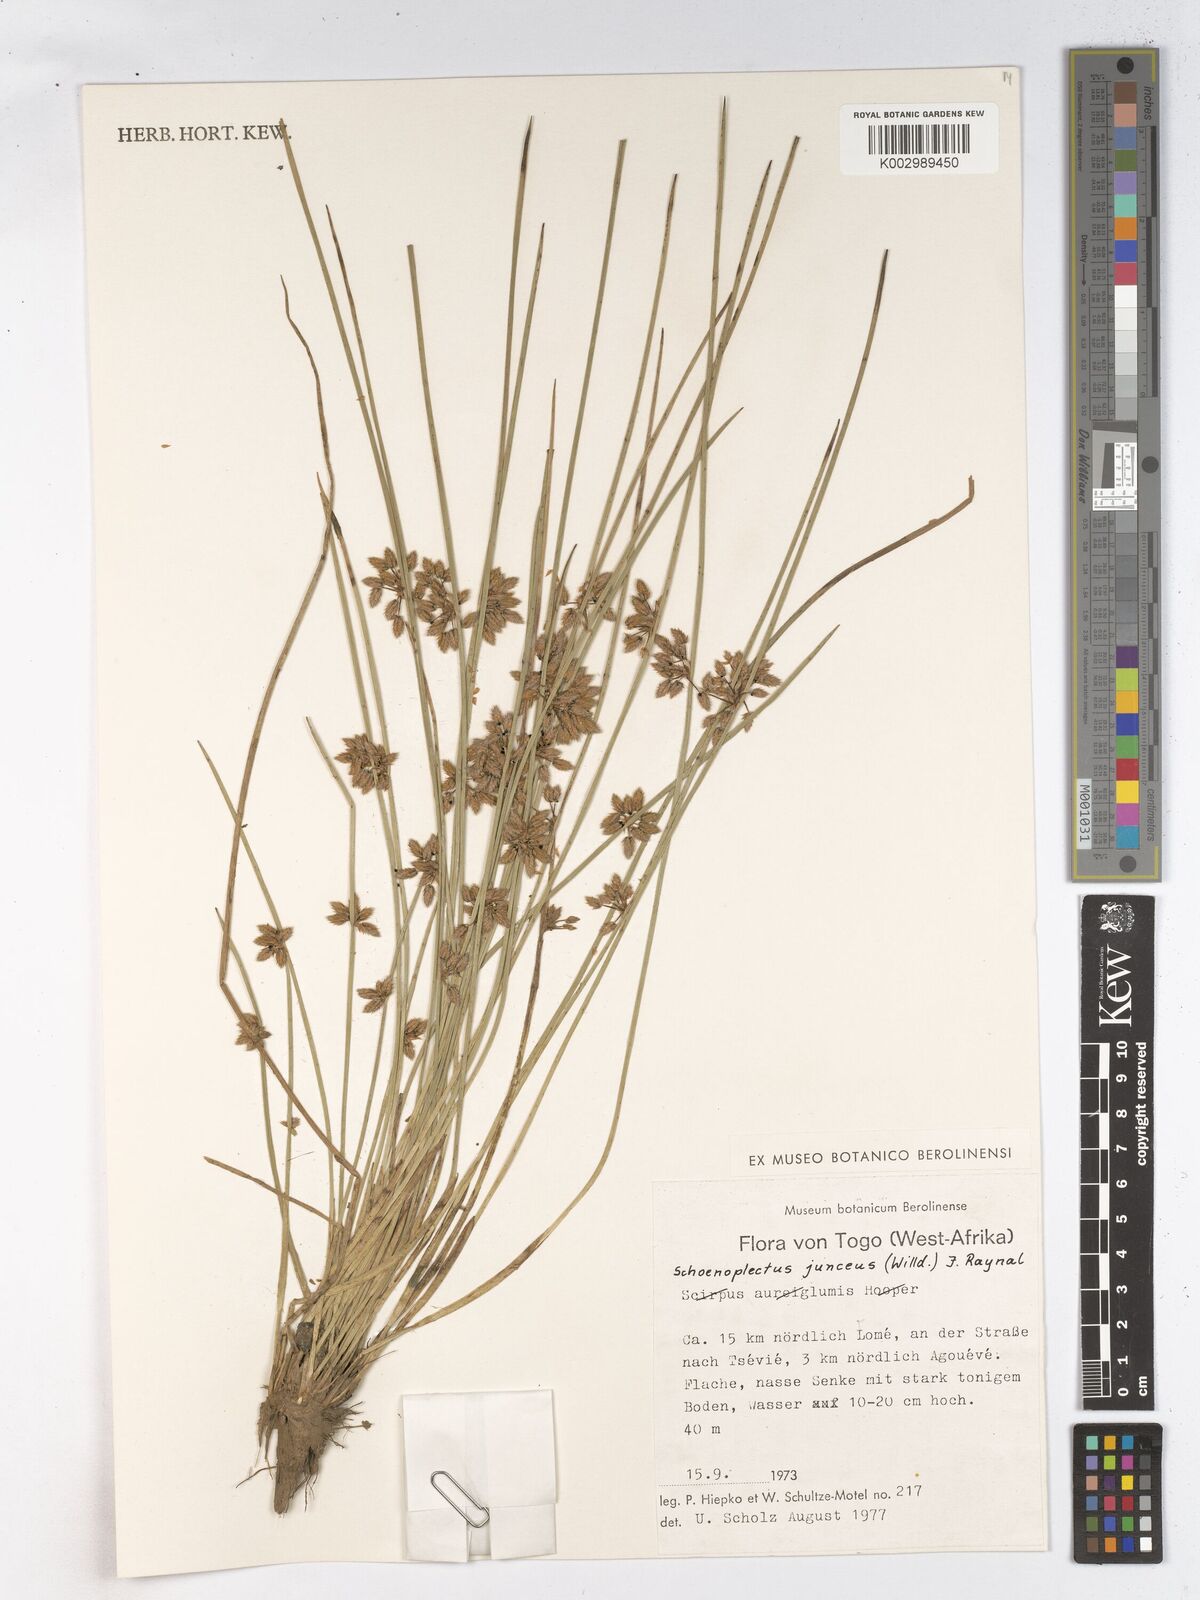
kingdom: Plantae
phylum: Tracheophyta
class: Liliopsida
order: Poales
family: Cyperaceae
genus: Schoenoplectiella
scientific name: Schoenoplectiella juncea
